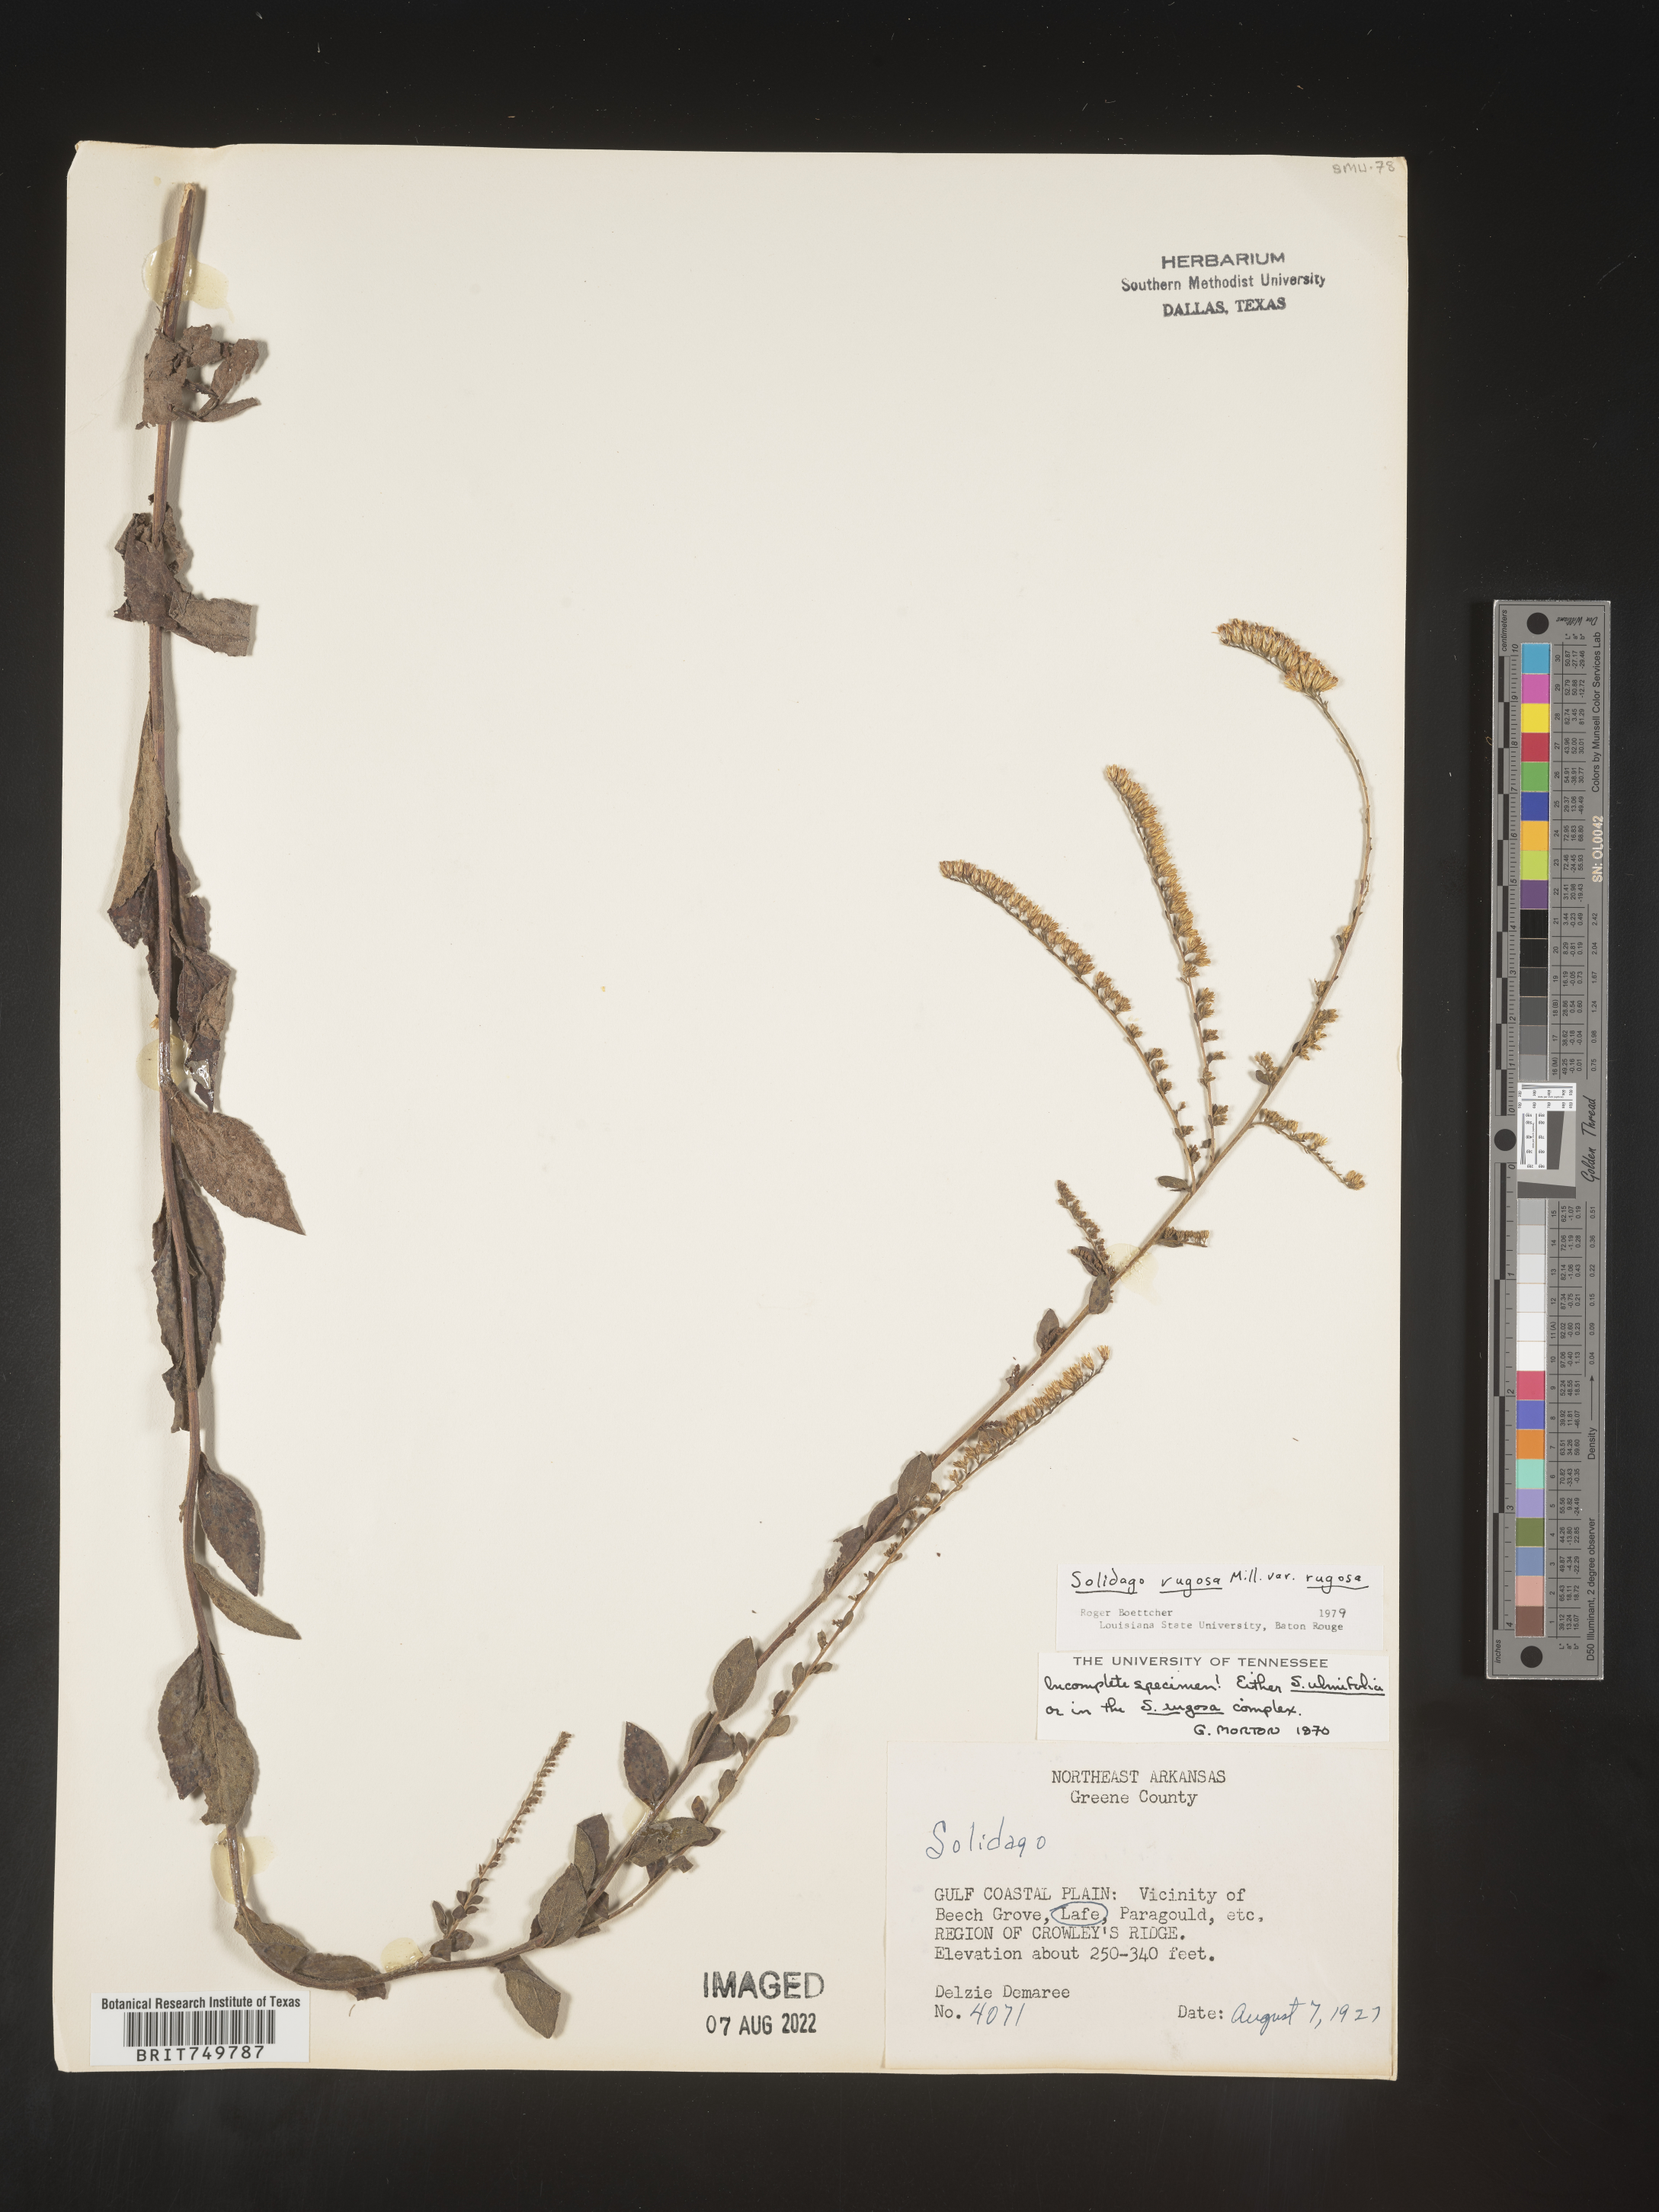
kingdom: Plantae
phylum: Tracheophyta
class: Magnoliopsida
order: Asterales
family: Asteraceae
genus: Solidago
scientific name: Solidago ulmifolia
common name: Elm-leaf goldenrod
